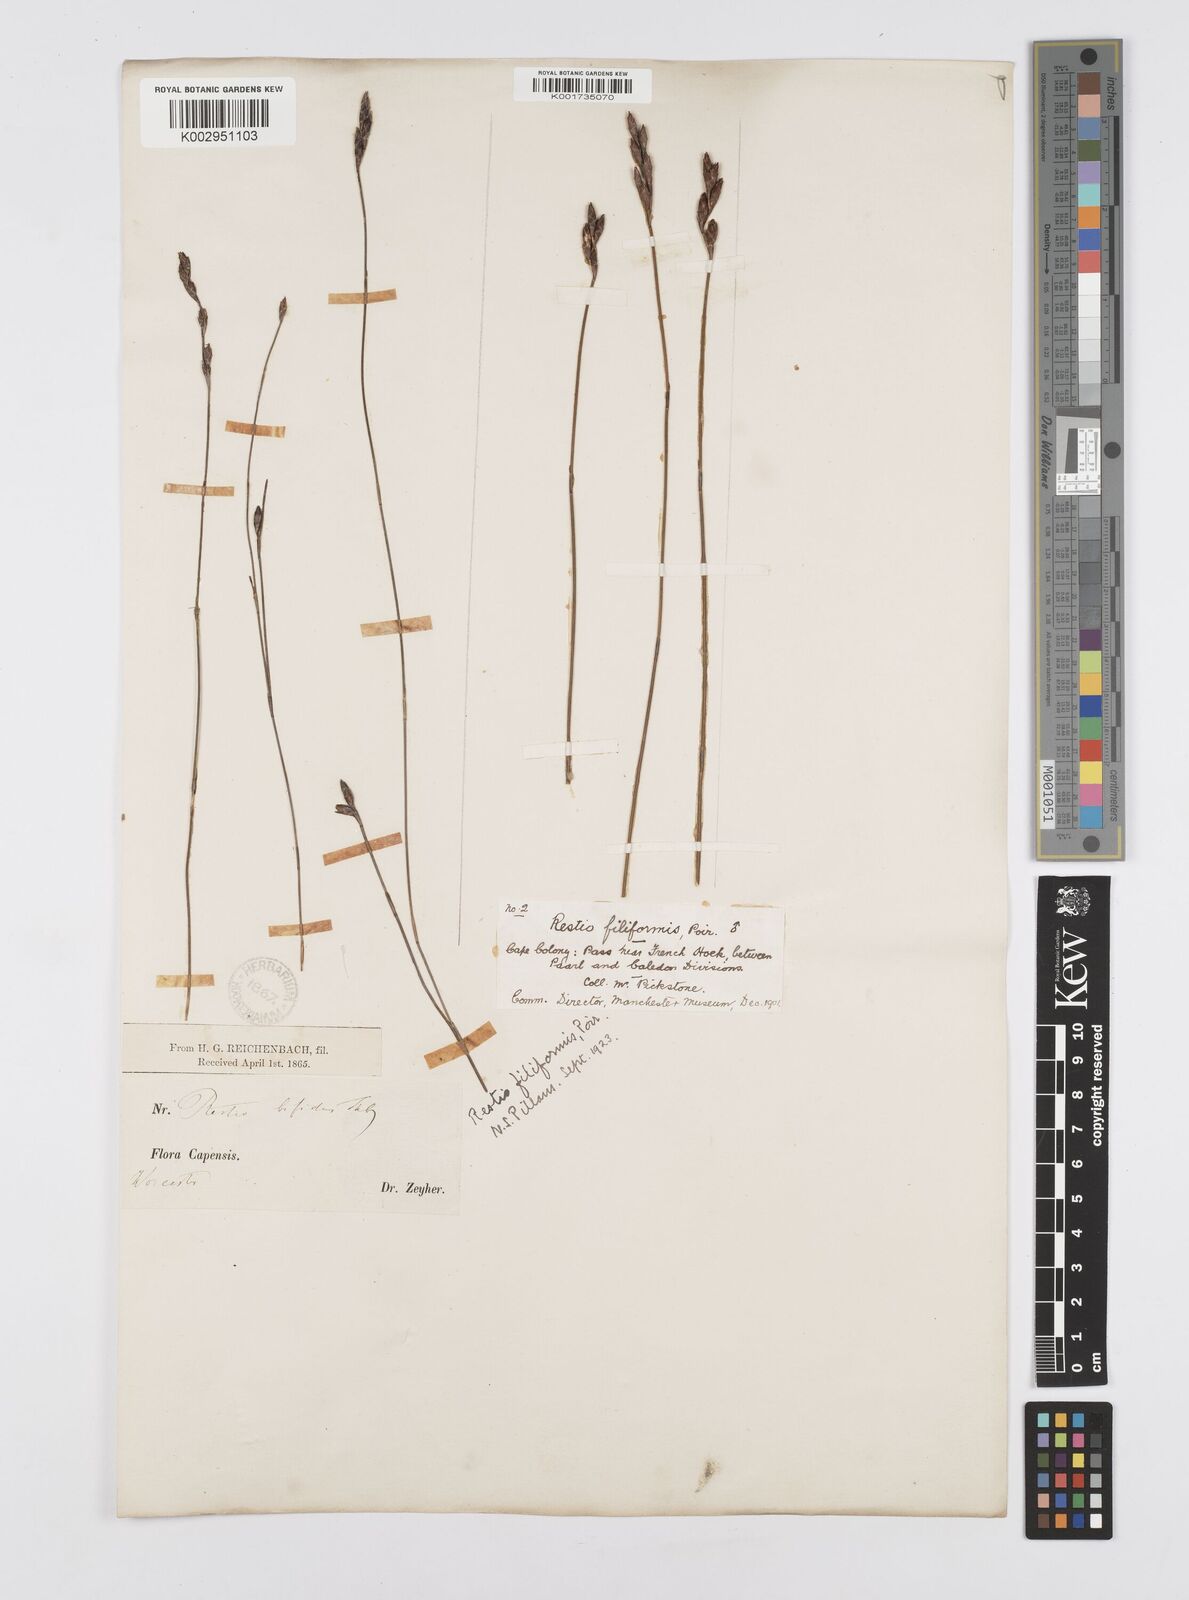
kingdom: Plantae
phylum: Tracheophyta
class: Liliopsida
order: Poales
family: Restionaceae
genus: Restio
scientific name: Restio filiformis
